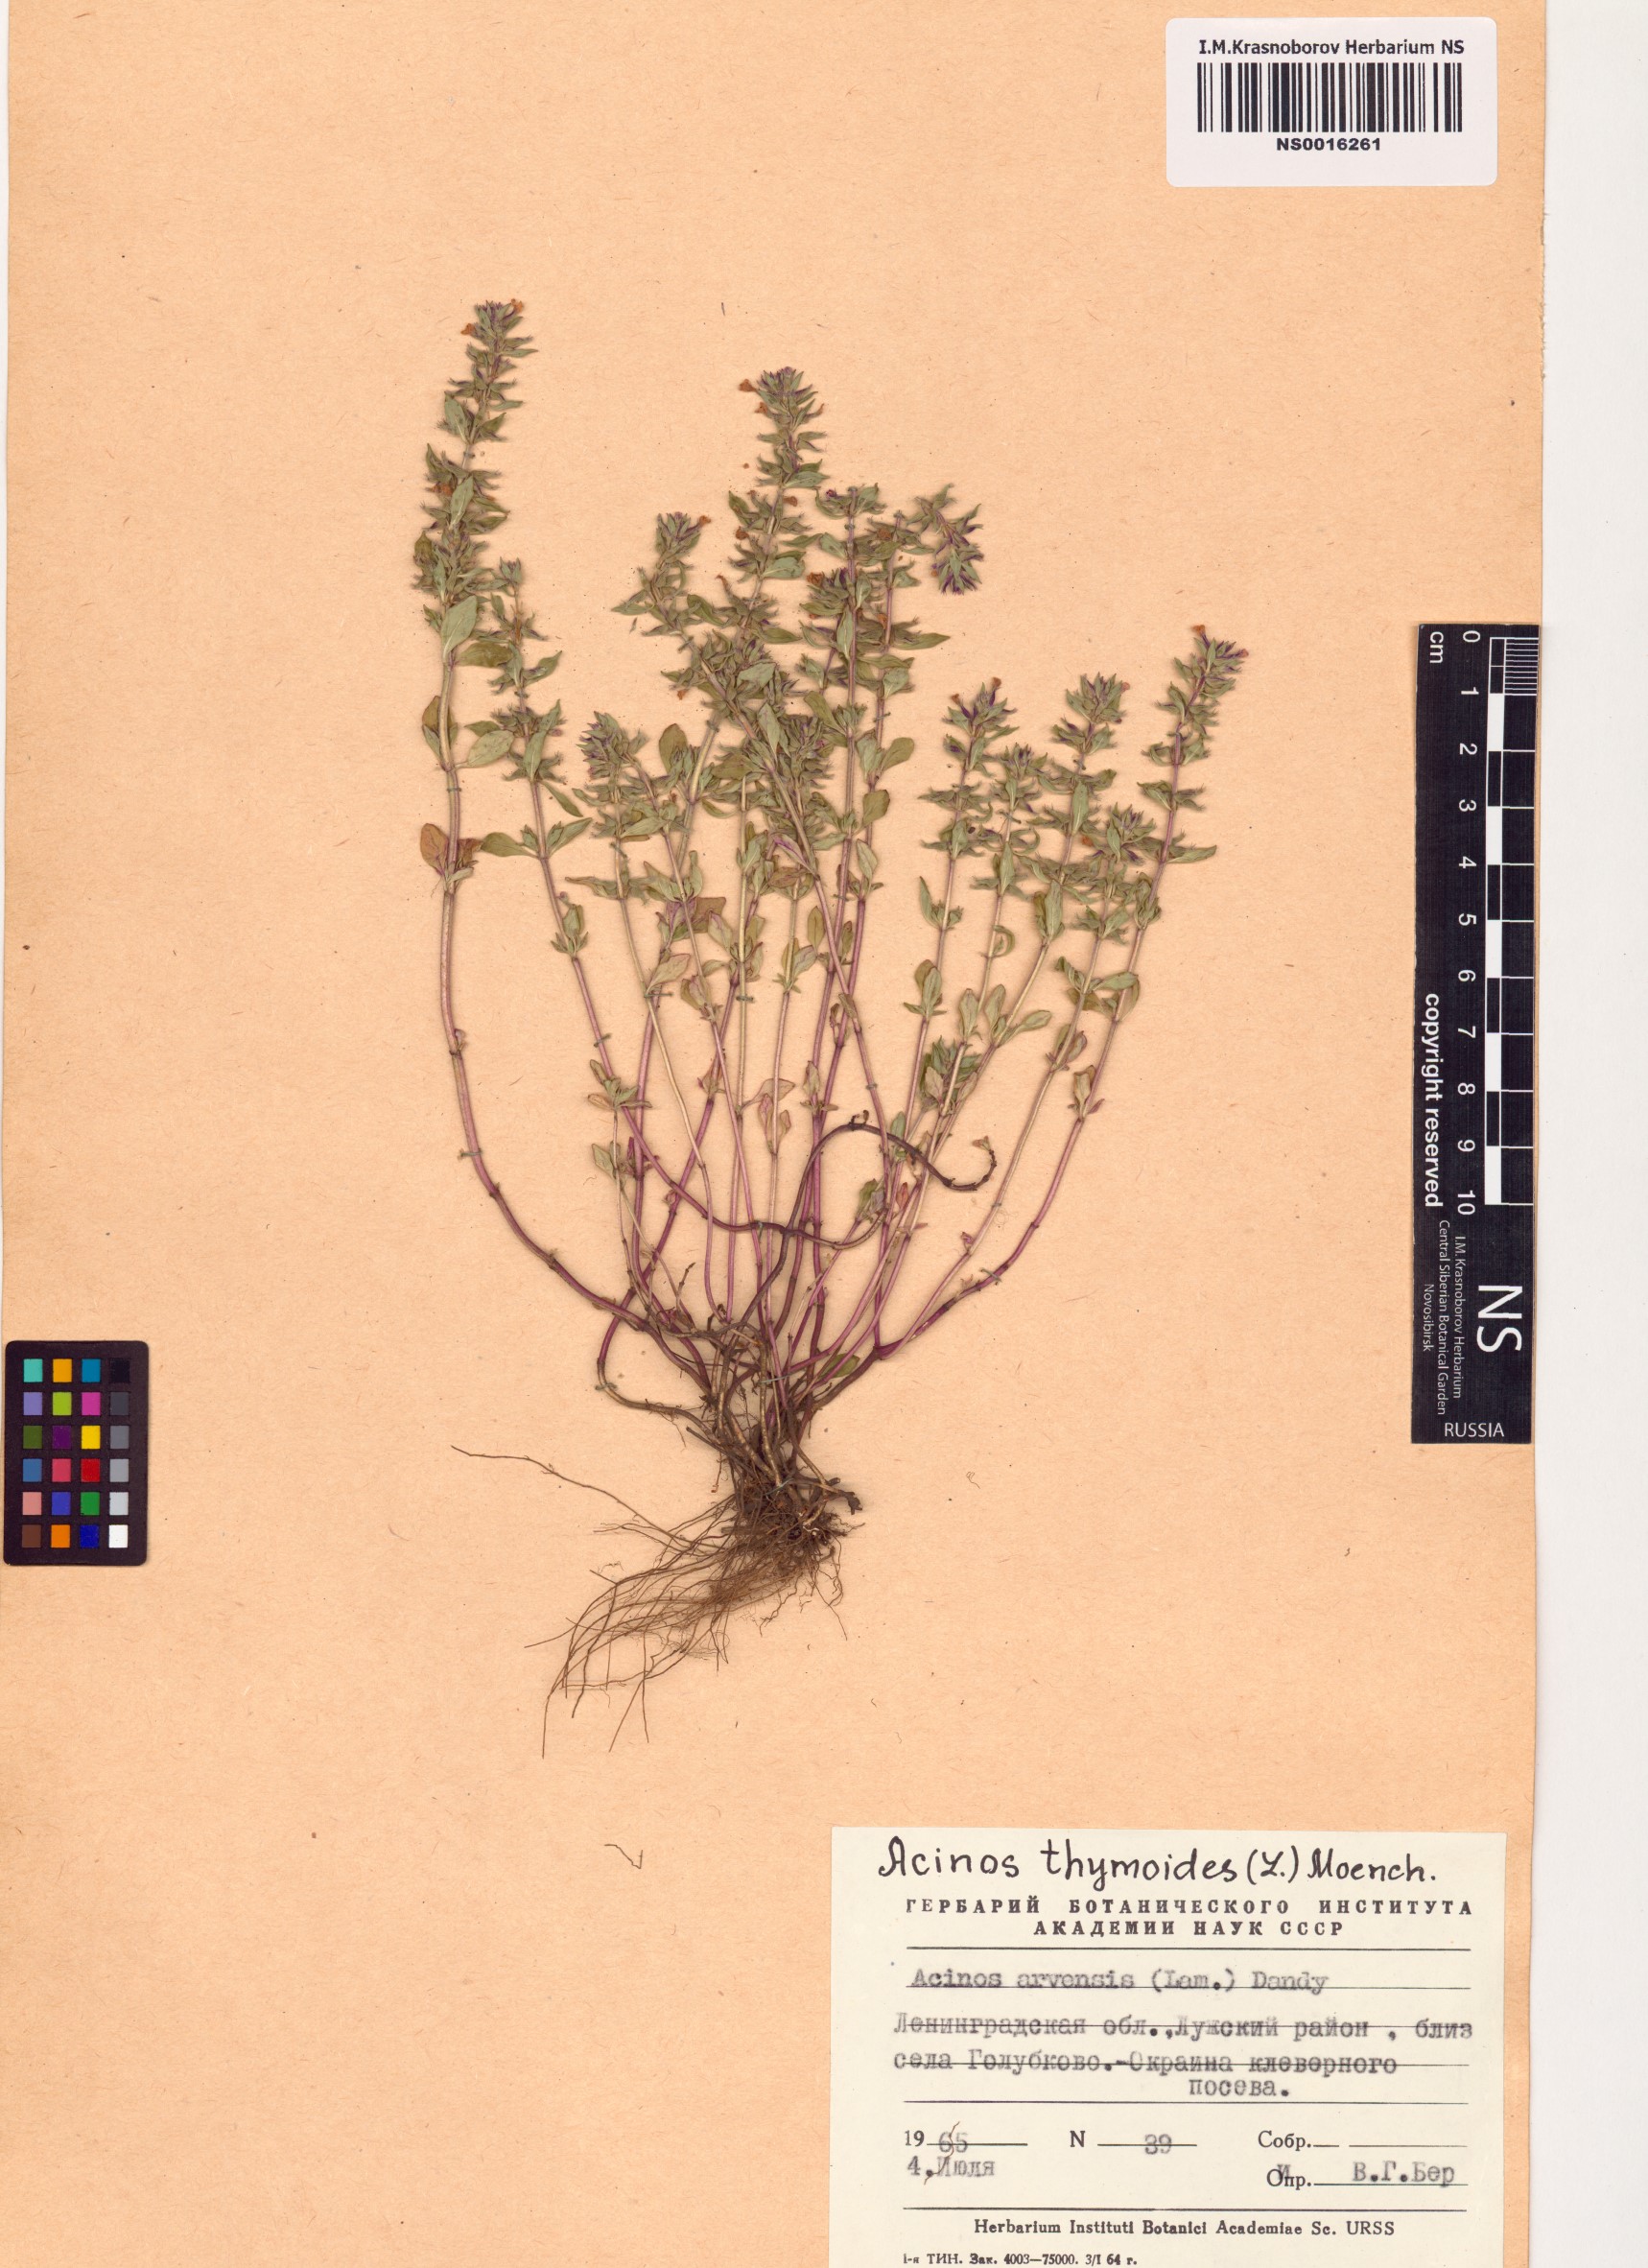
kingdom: Plantae
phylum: Tracheophyta
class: Magnoliopsida
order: Lamiales
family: Lamiaceae
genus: Clinopodium
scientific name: Clinopodium acinos
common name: Basil thyme
